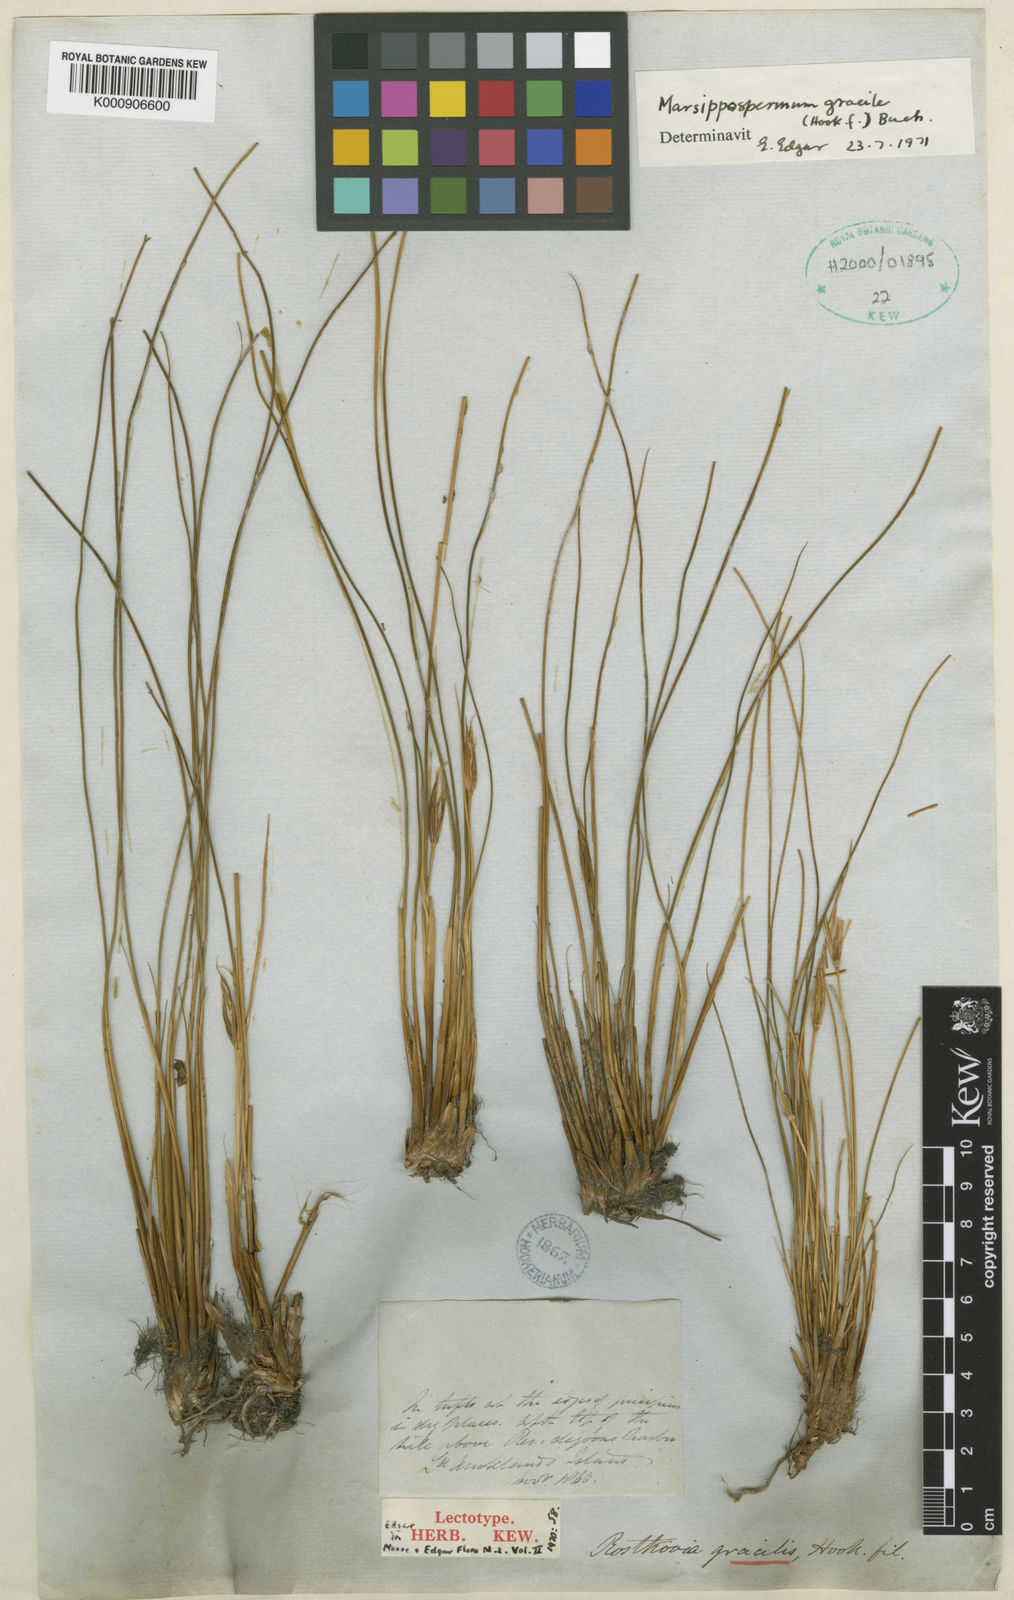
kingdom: Plantae
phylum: Tracheophyta
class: Liliopsida
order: Poales
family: Juncaceae
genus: Marsippospermum
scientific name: Marsippospermum gracile
